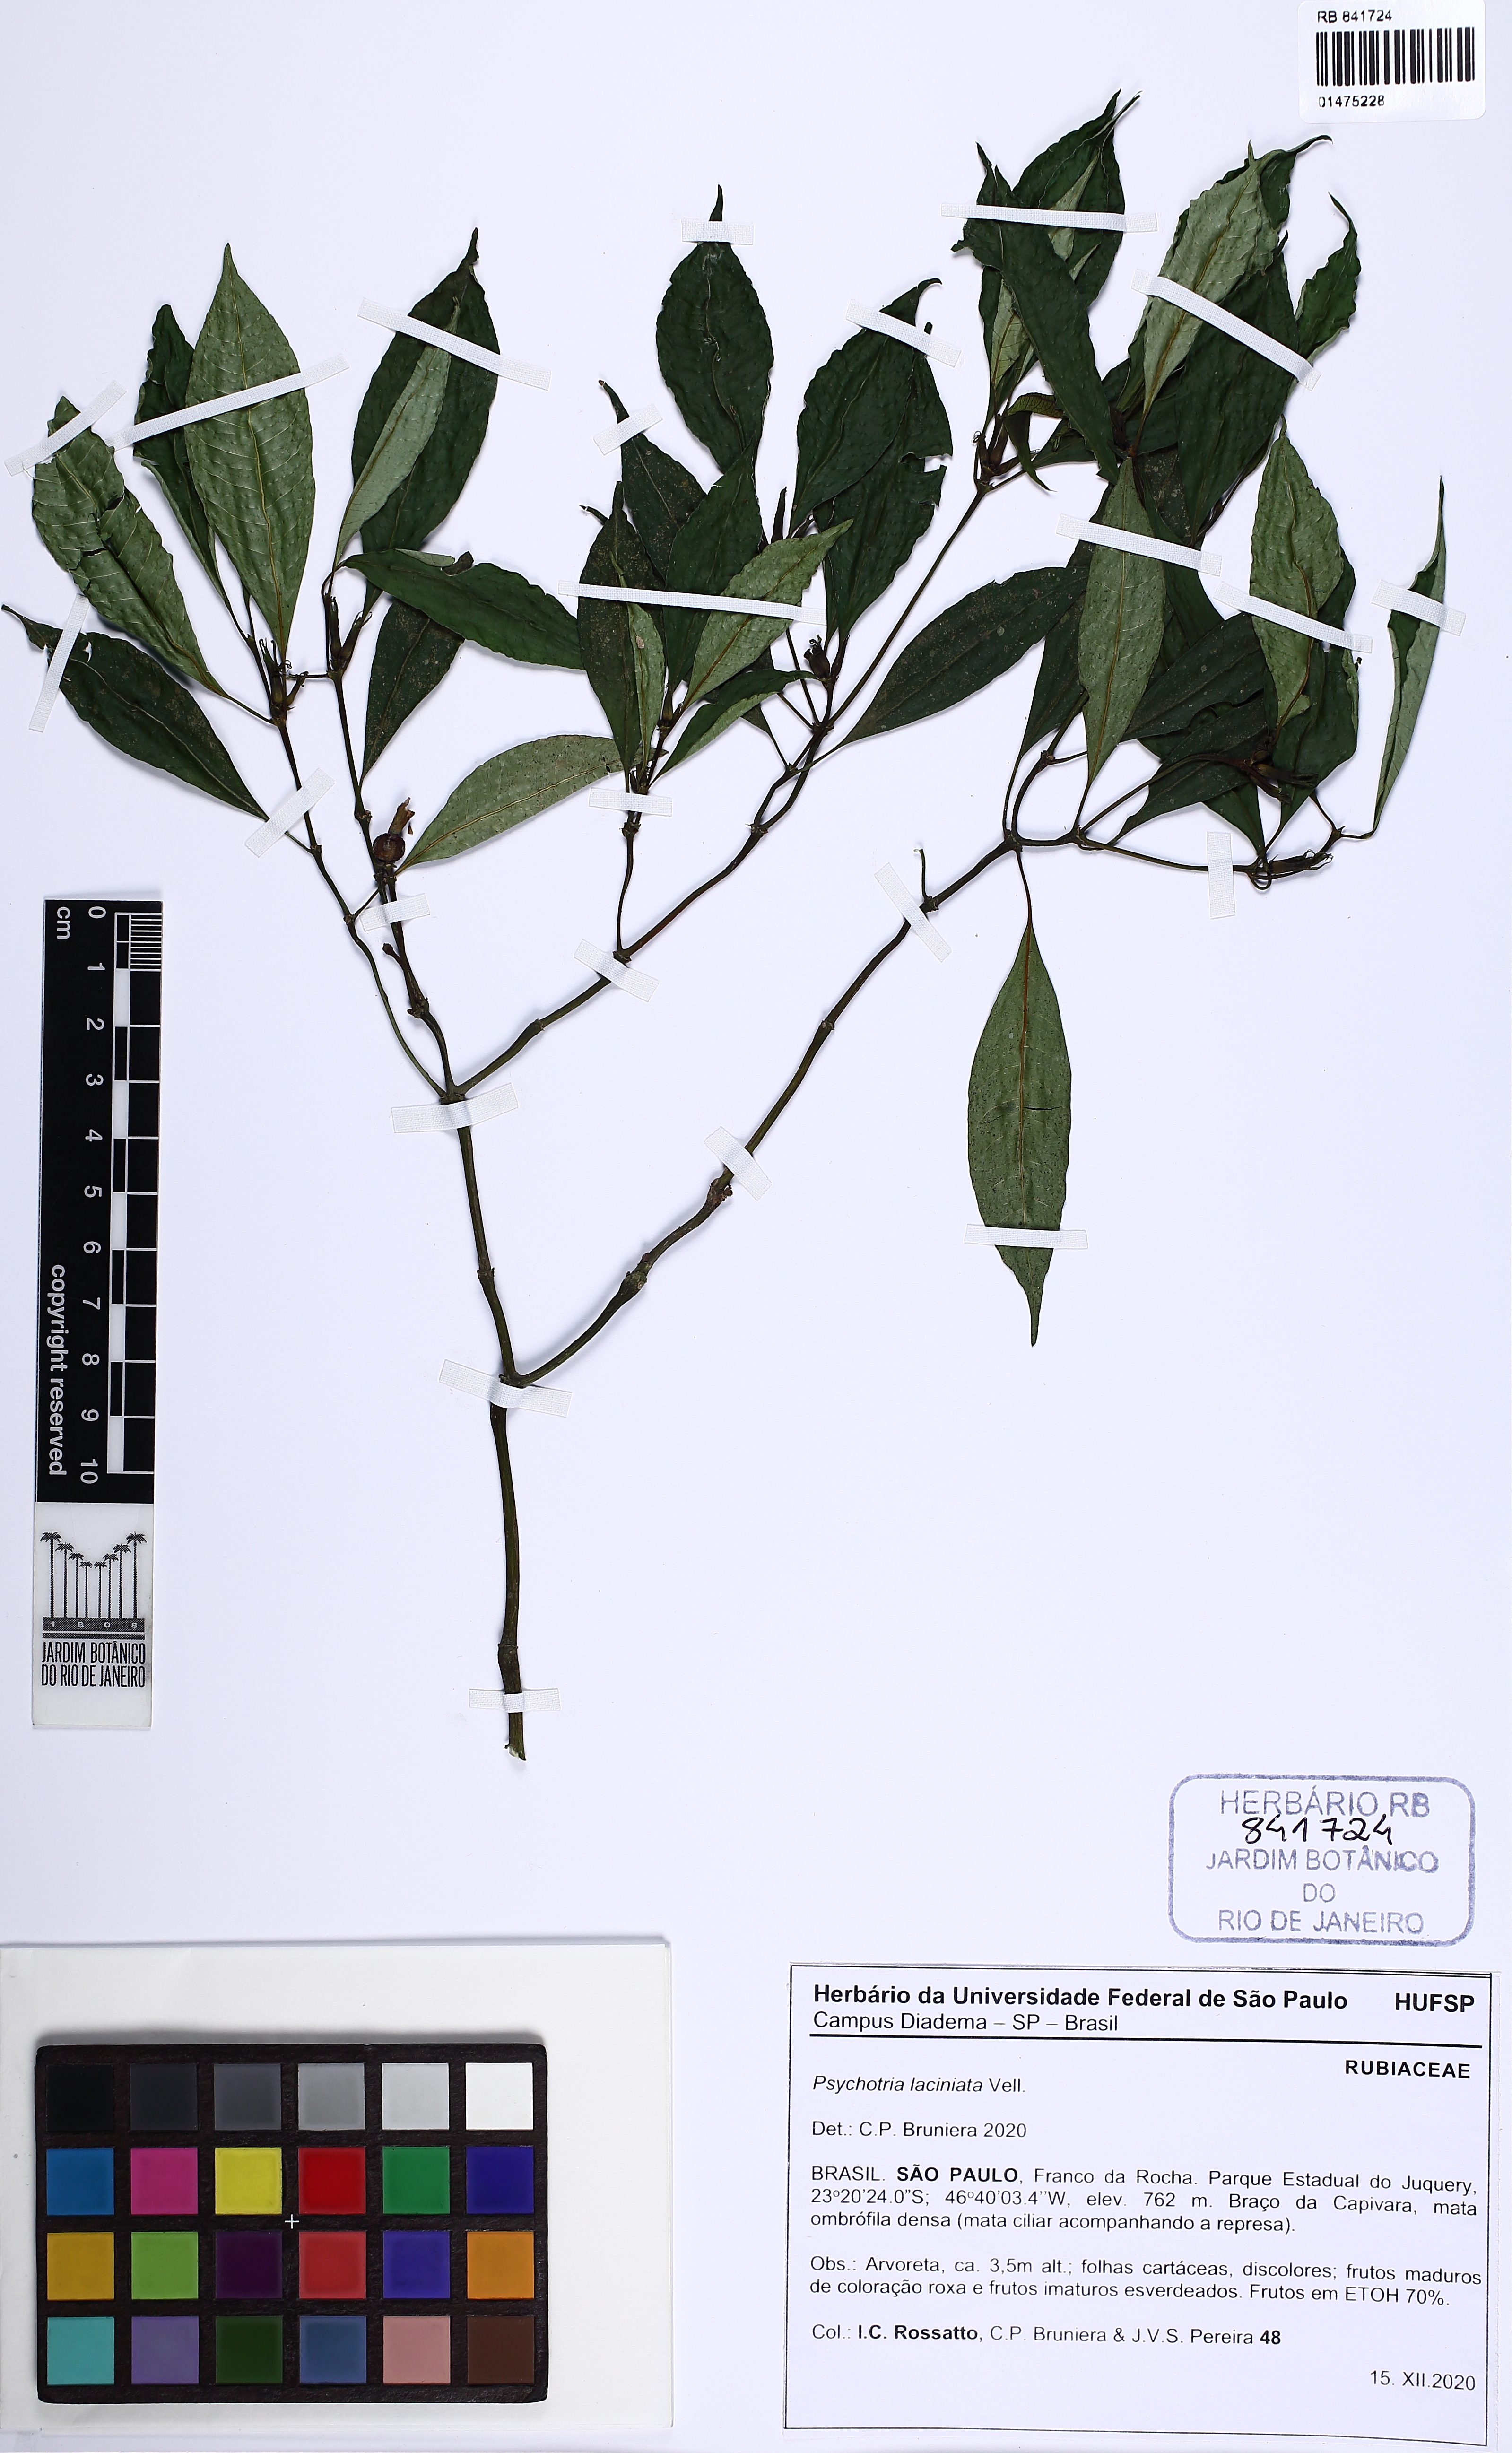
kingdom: Plantae
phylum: Tracheophyta
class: Magnoliopsida
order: Gentianales
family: Rubiaceae
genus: Psychotria
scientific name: Psychotria laciniata
